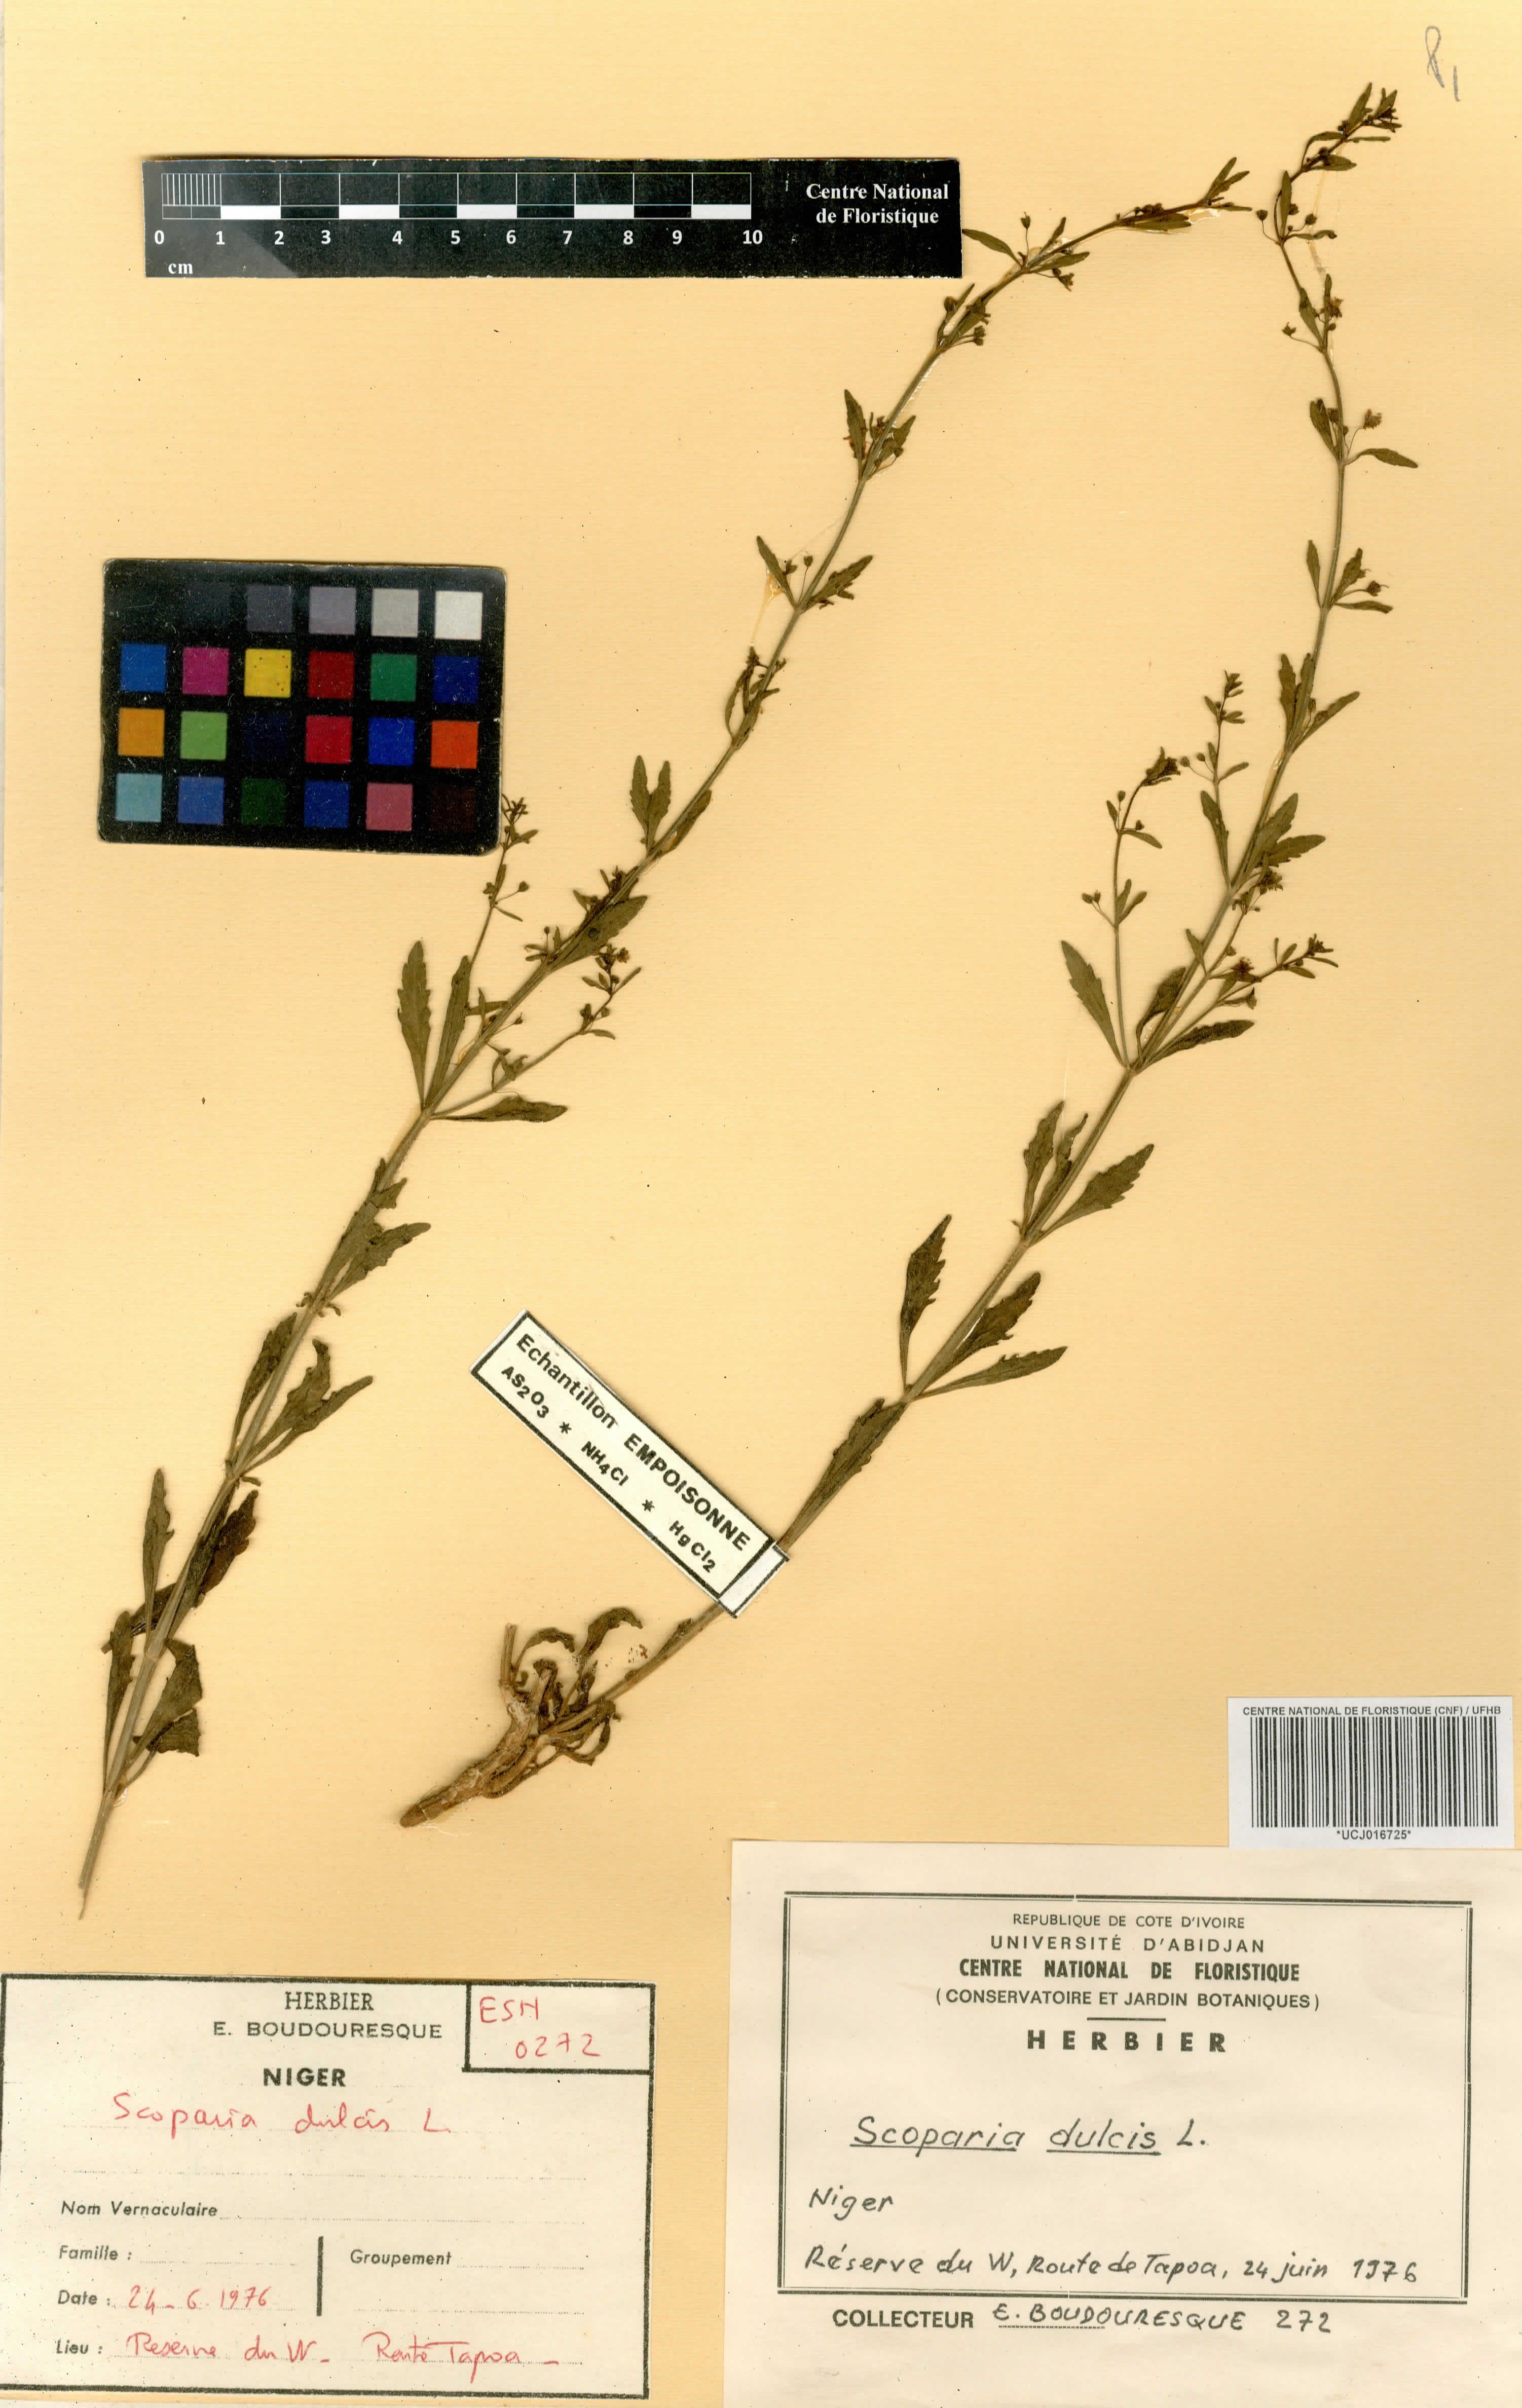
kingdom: Plantae
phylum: Tracheophyta
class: Magnoliopsida
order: Lamiales
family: Plantaginaceae
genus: Scoparia
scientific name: Scoparia dulcis
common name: Scoparia-weed
